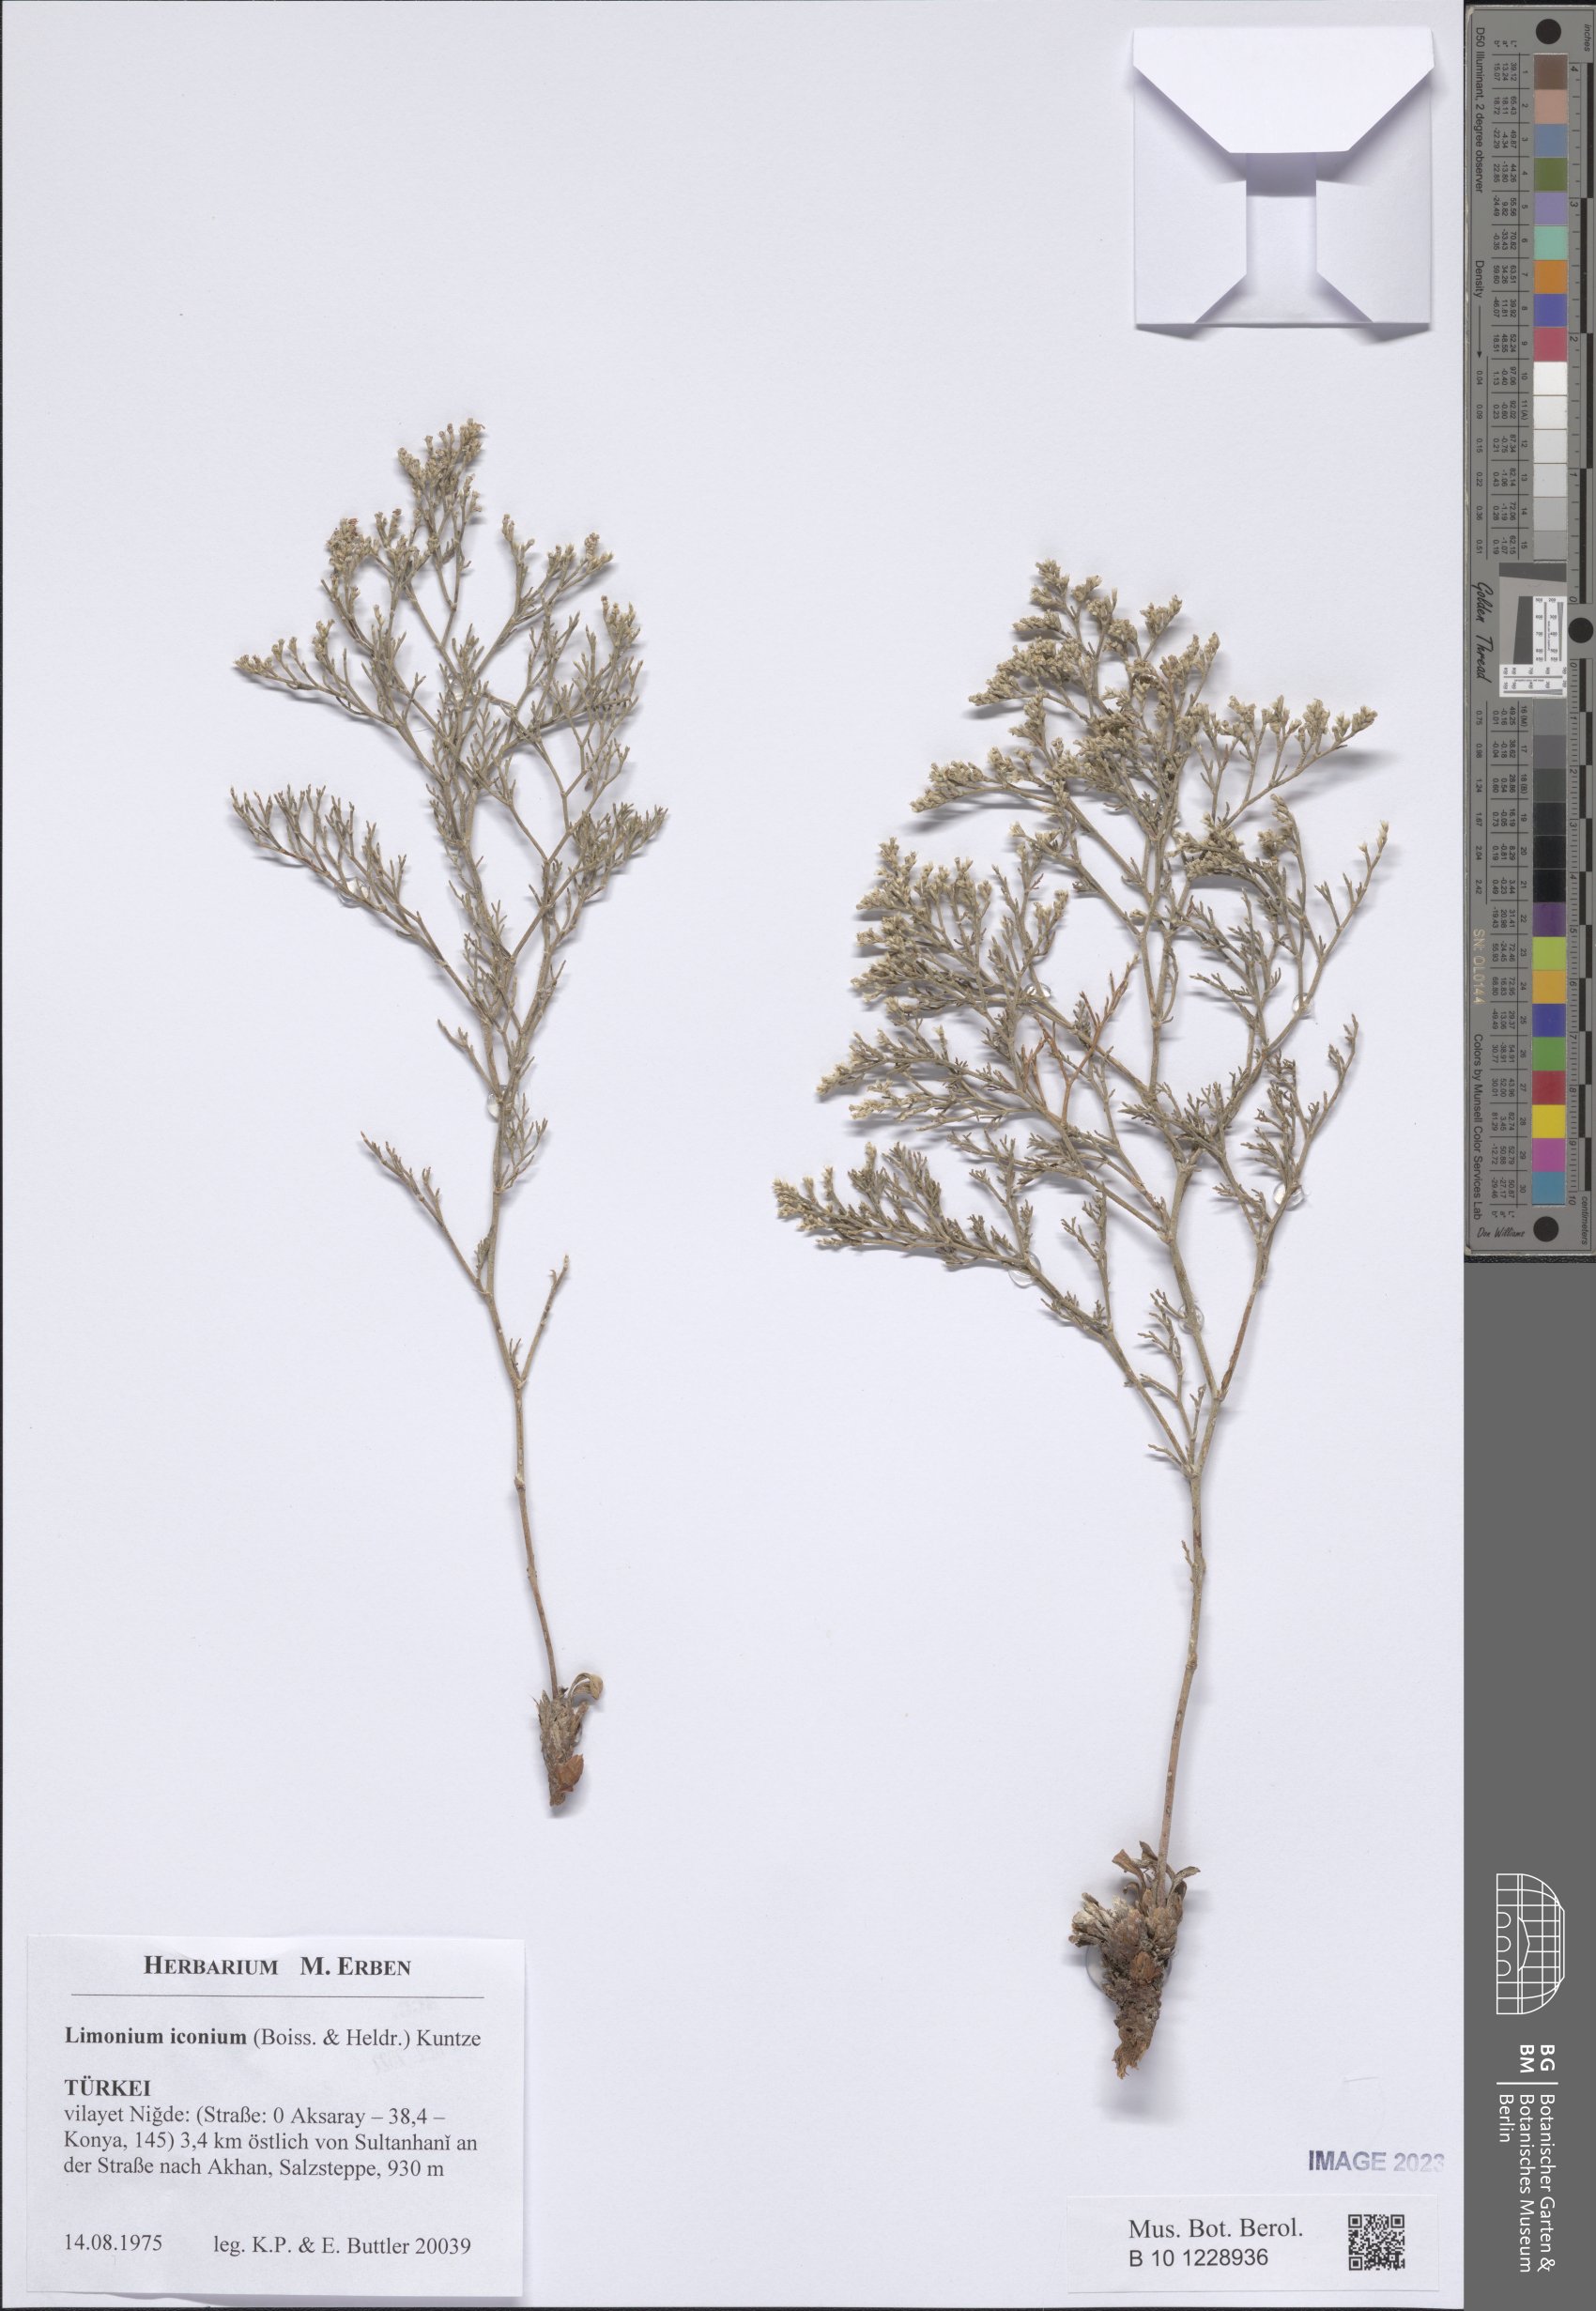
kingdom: Plantae
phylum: Tracheophyta
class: Magnoliopsida
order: Caryophyllales
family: Plumbaginaceae
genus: Limonium
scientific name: Limonium iconium
